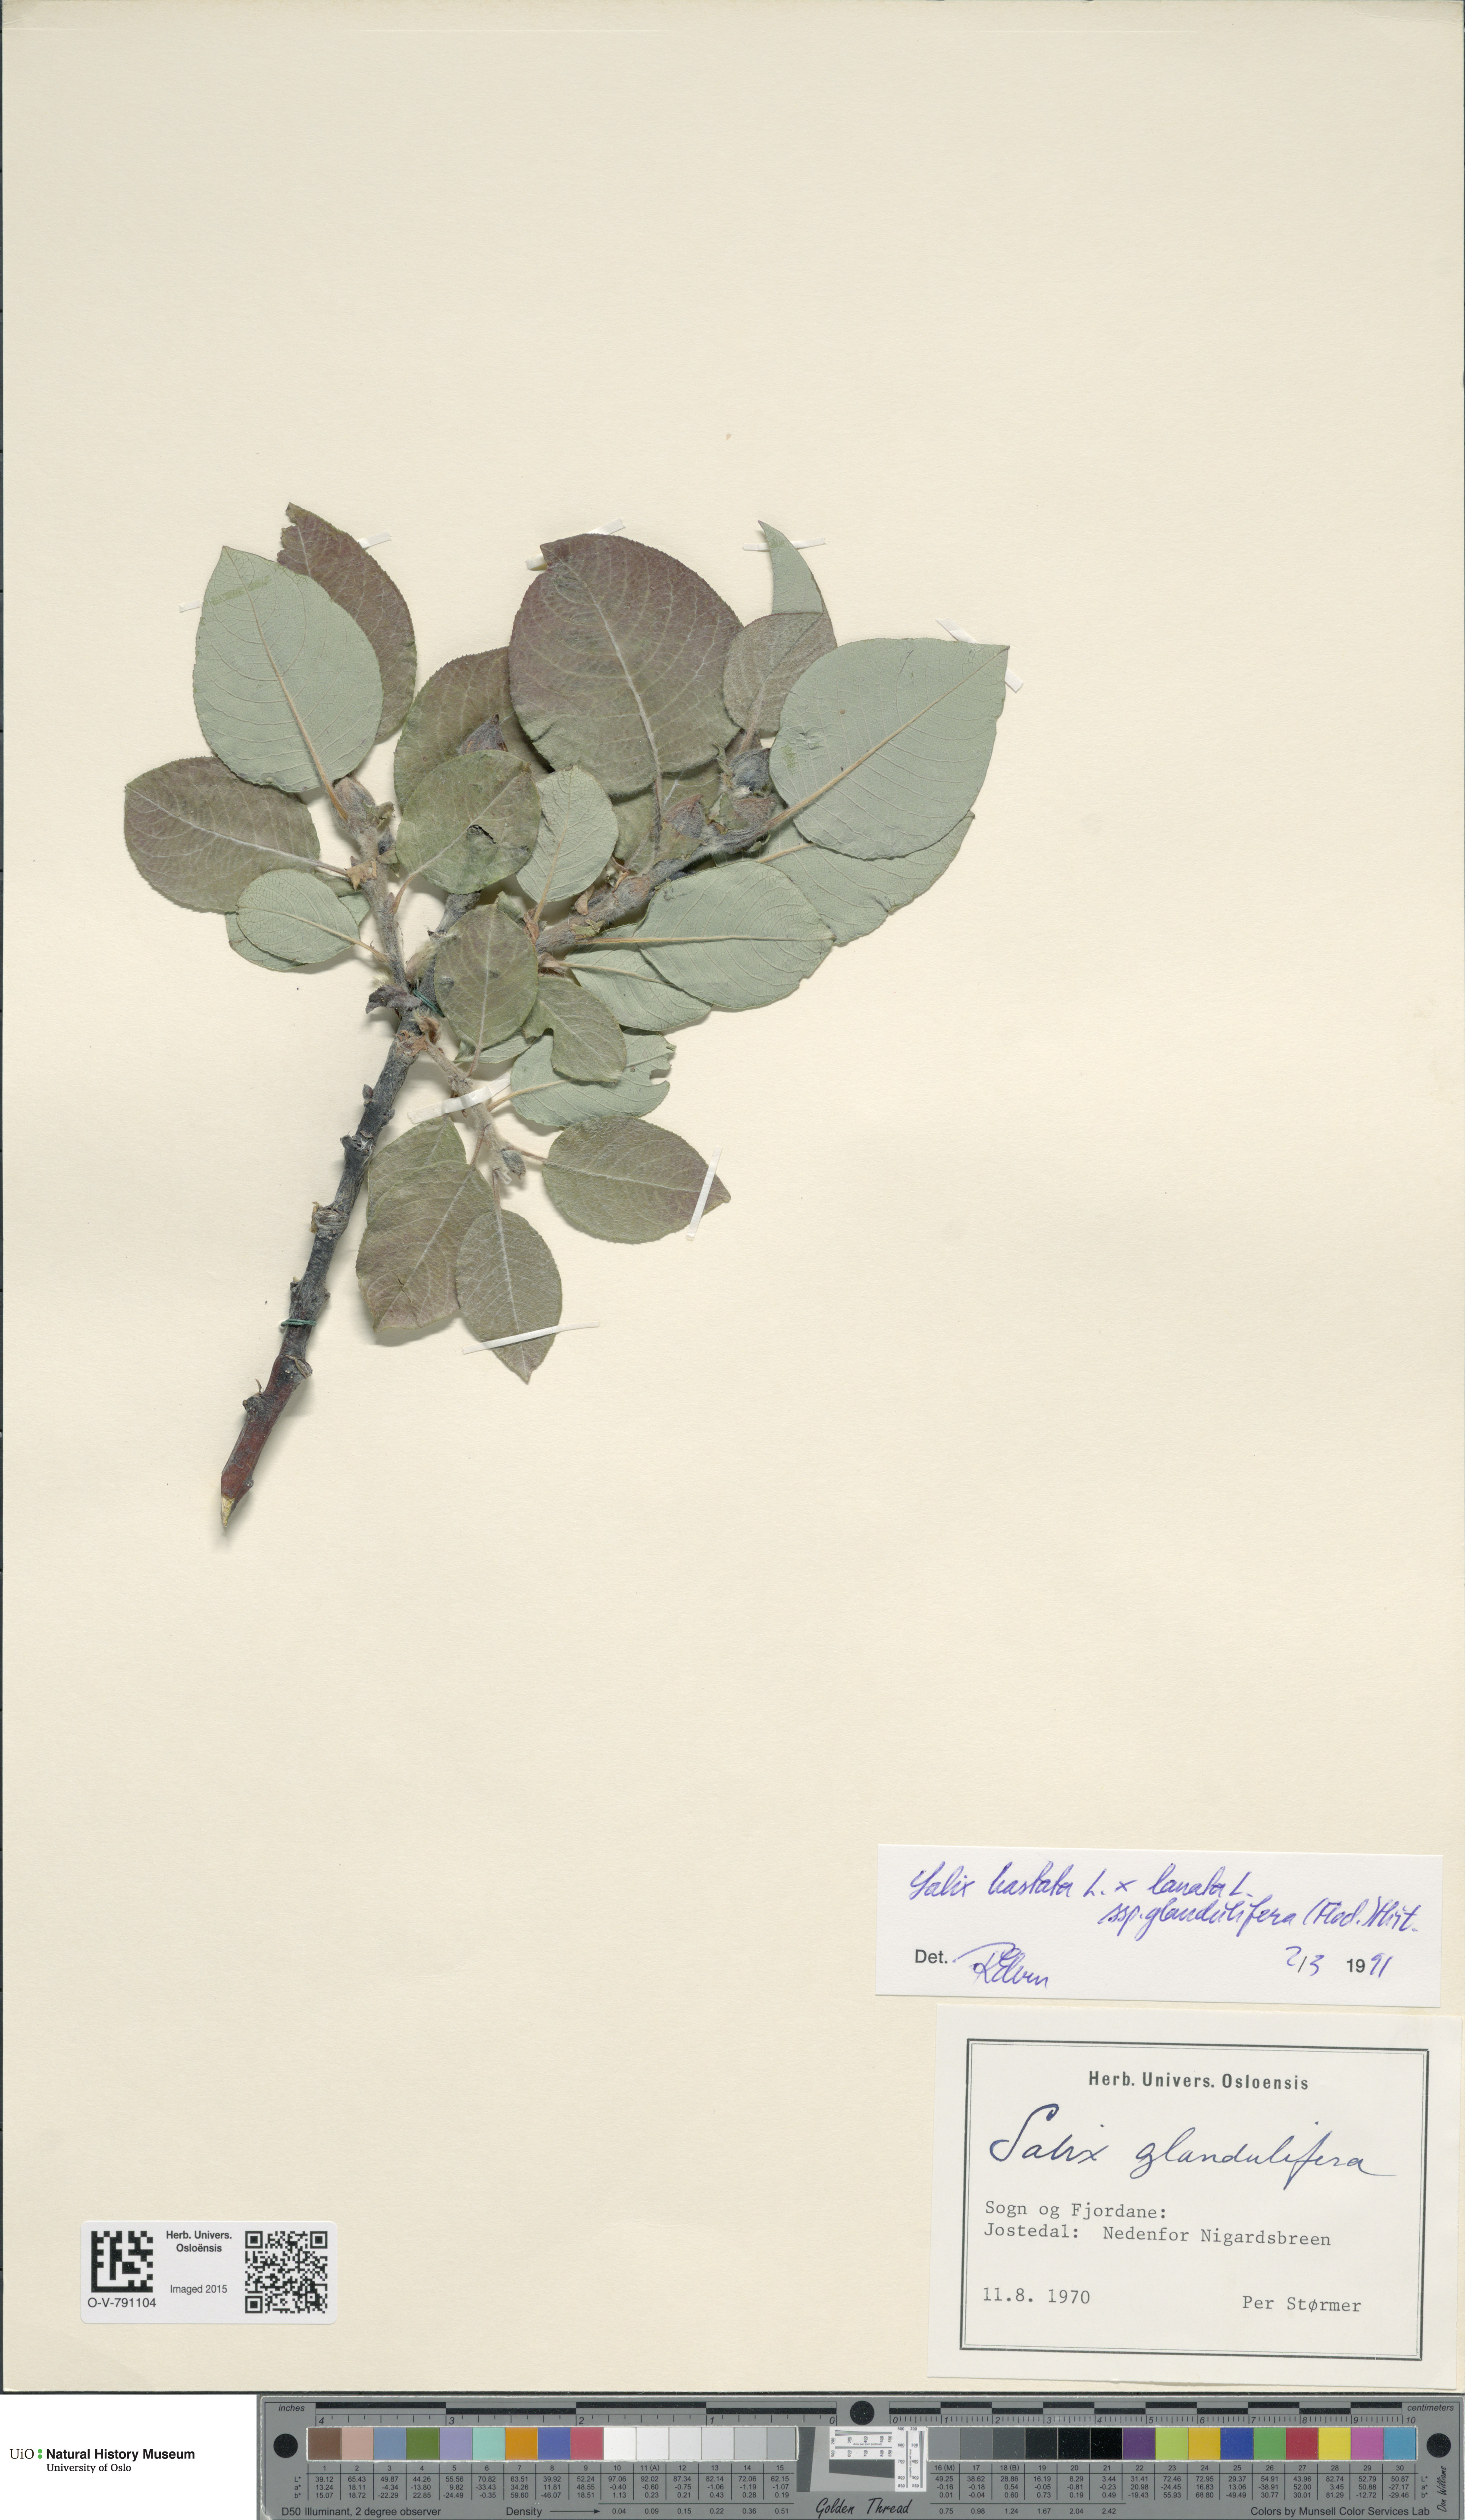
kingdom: Plantae
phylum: Tracheophyta
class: Magnoliopsida
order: Malpighiales
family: Salicaceae
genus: Salix
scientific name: Salix
